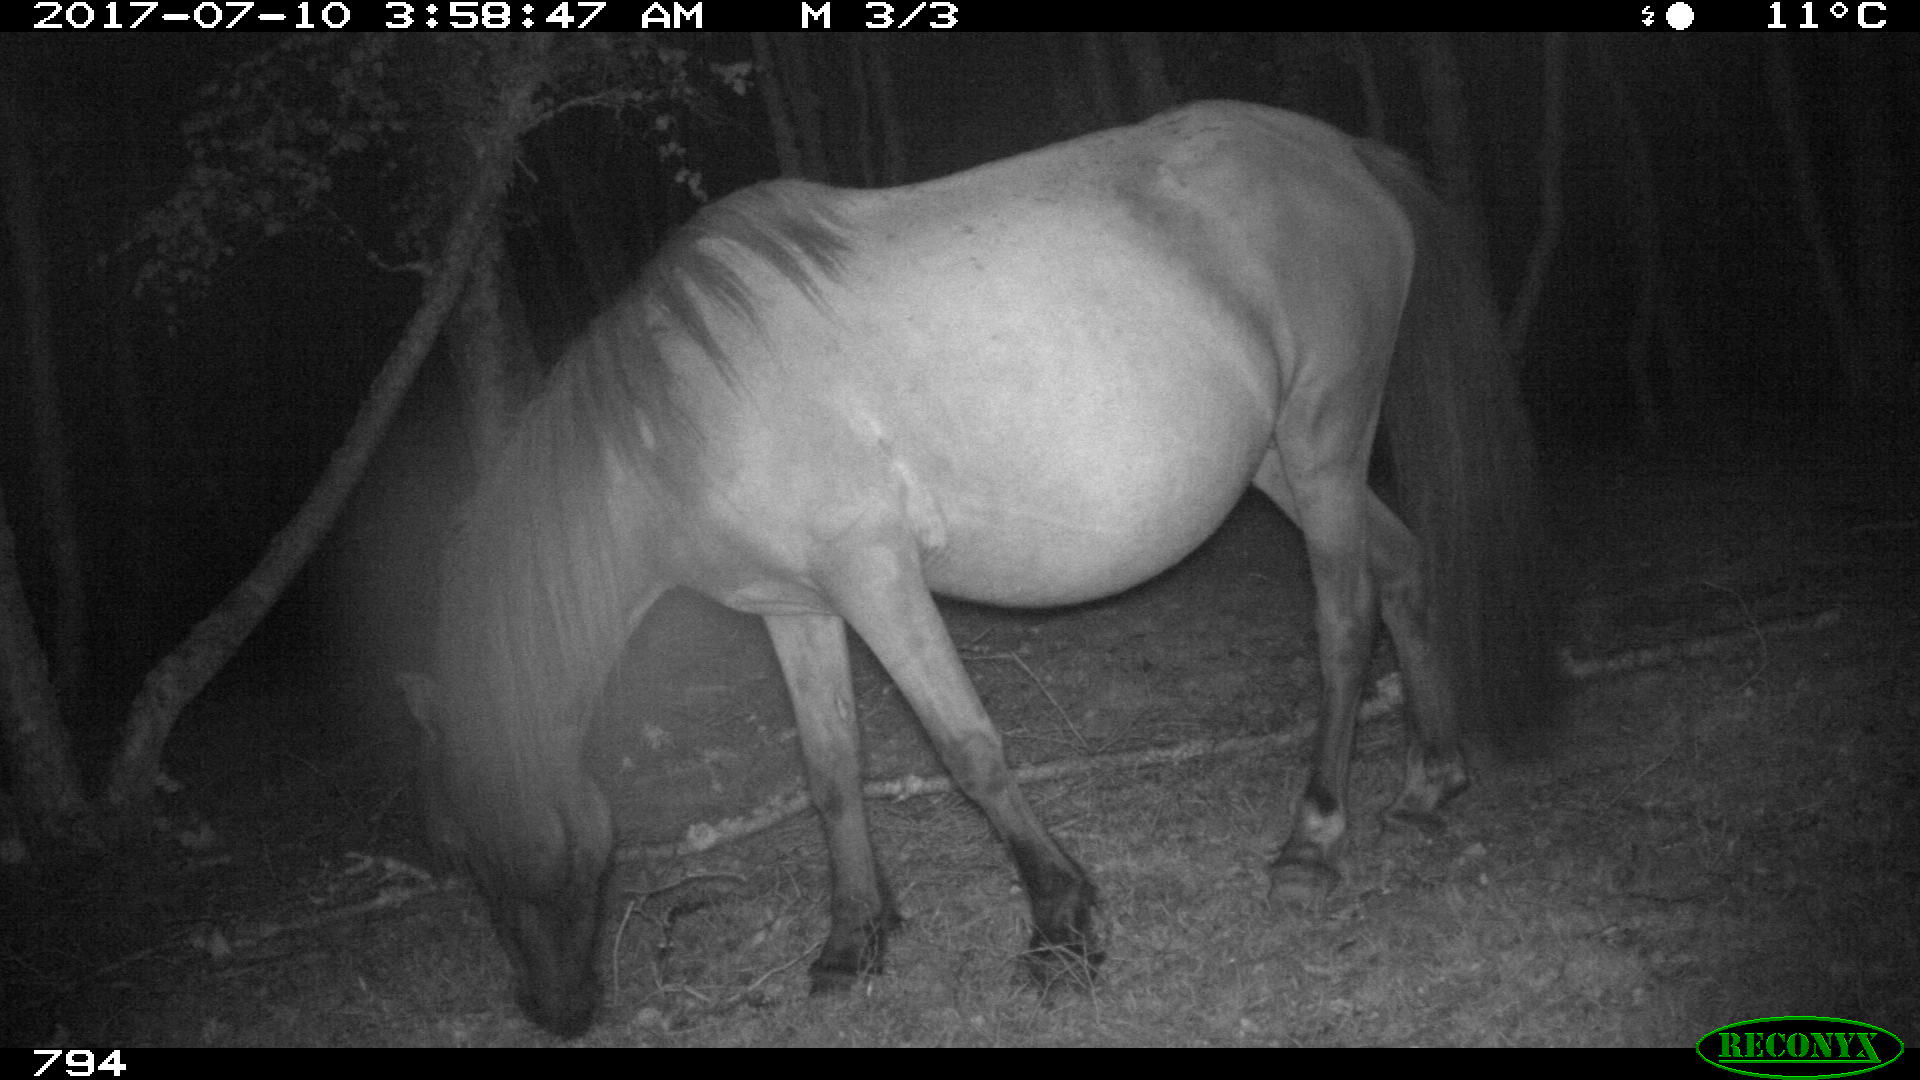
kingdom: Animalia
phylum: Chordata
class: Mammalia
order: Perissodactyla
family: Equidae
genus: Equus
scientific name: Equus caballus
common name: Horse
